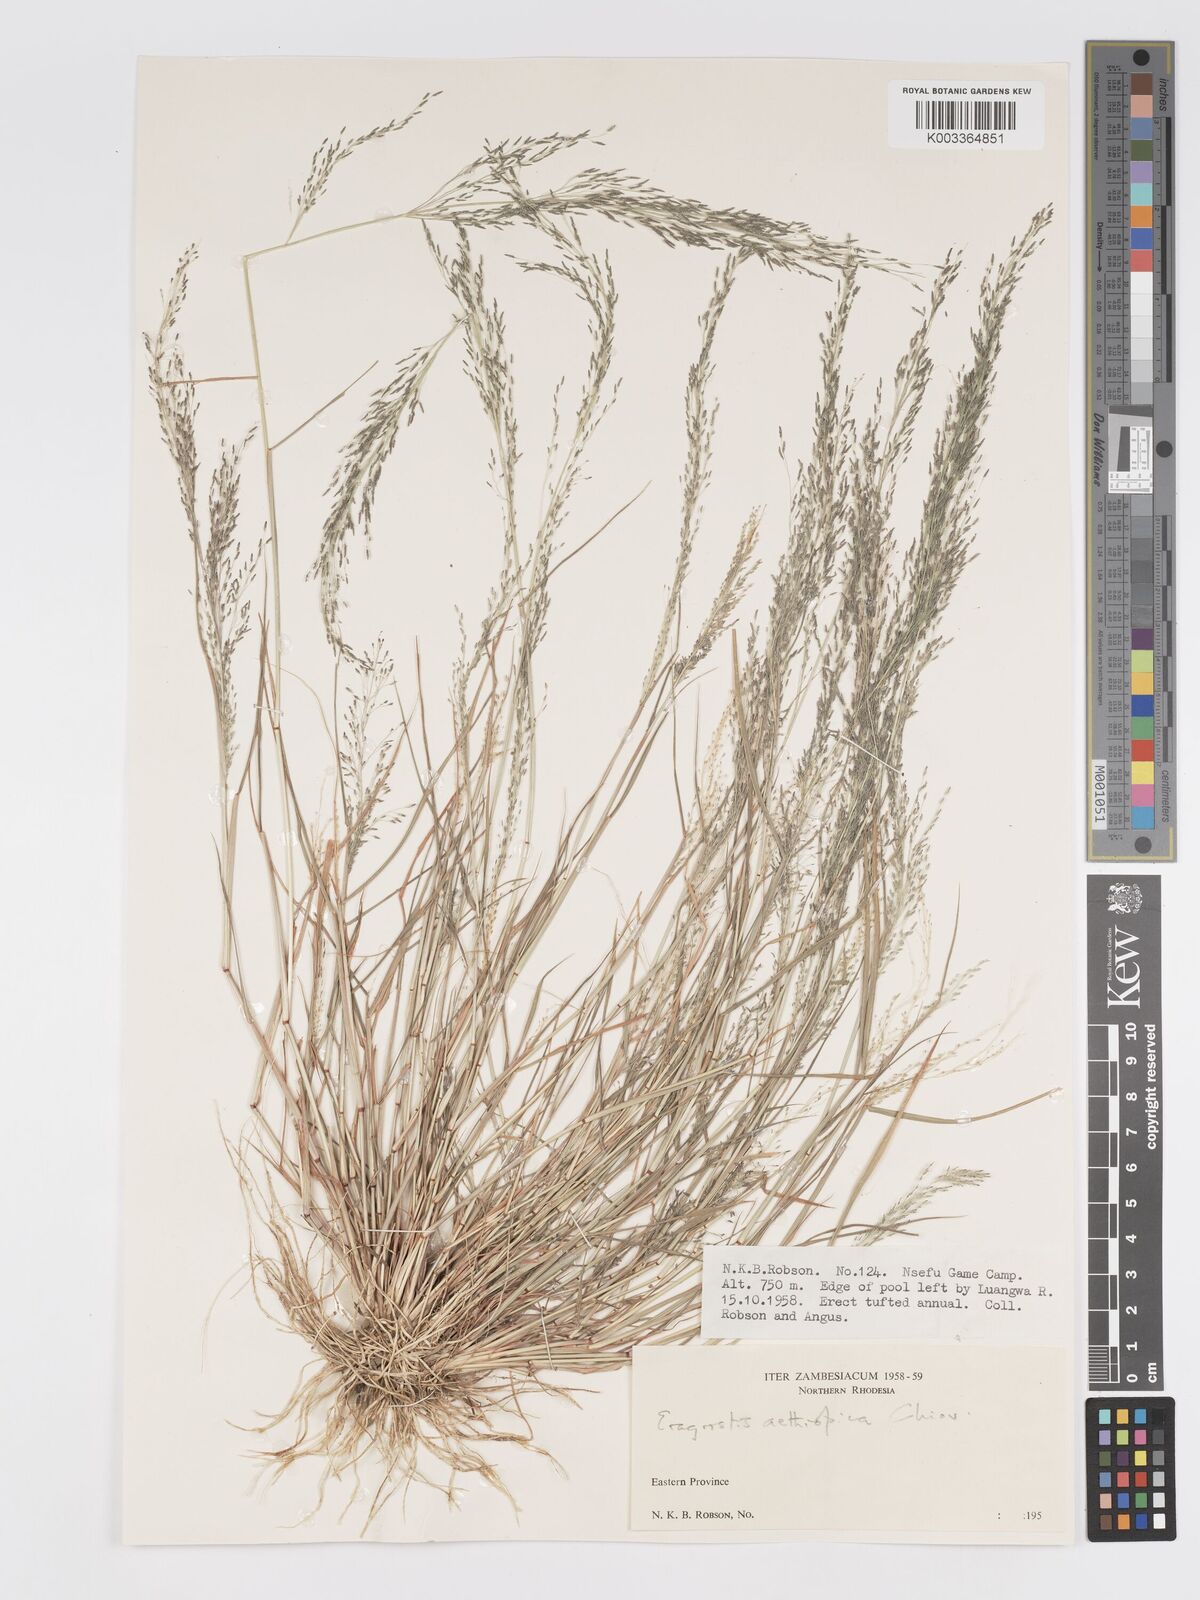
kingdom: Plantae
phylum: Tracheophyta
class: Liliopsida
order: Poales
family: Poaceae
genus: Eragrostis
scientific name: Eragrostis aethiopica
